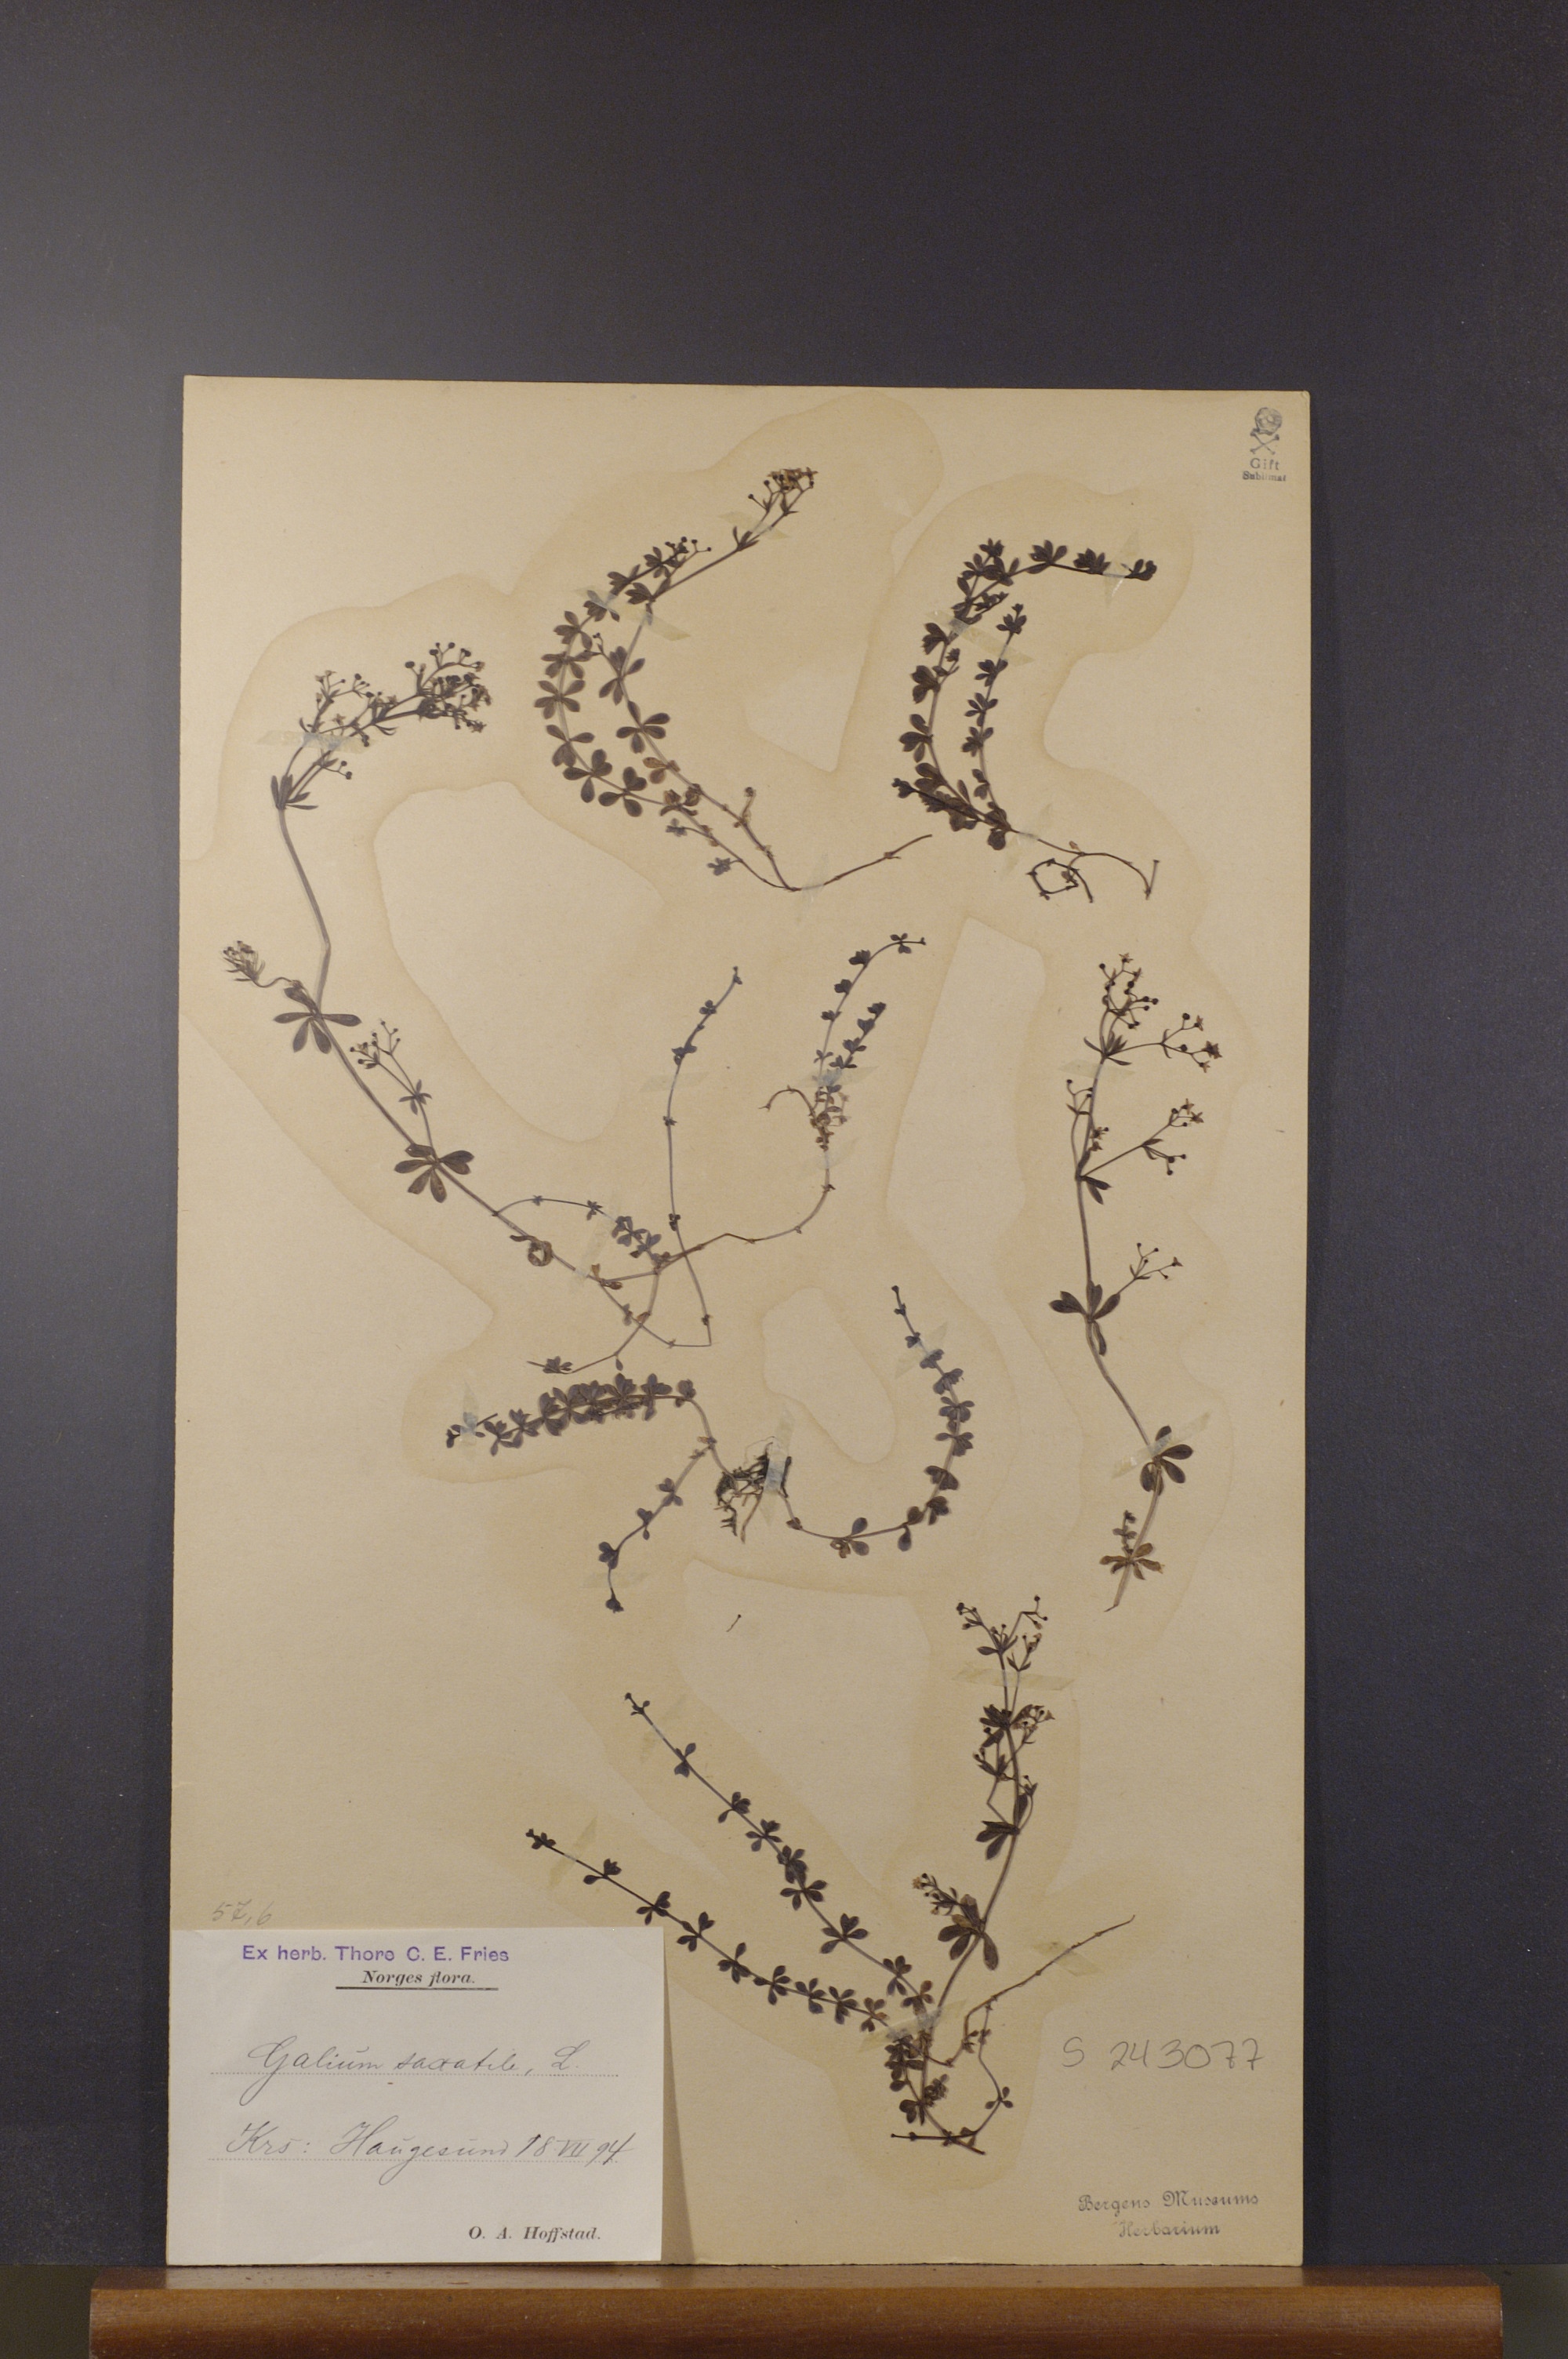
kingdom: Plantae
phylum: Tracheophyta
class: Magnoliopsida
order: Gentianales
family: Rubiaceae
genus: Galium
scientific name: Galium saxatile
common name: Heath bedstraw
